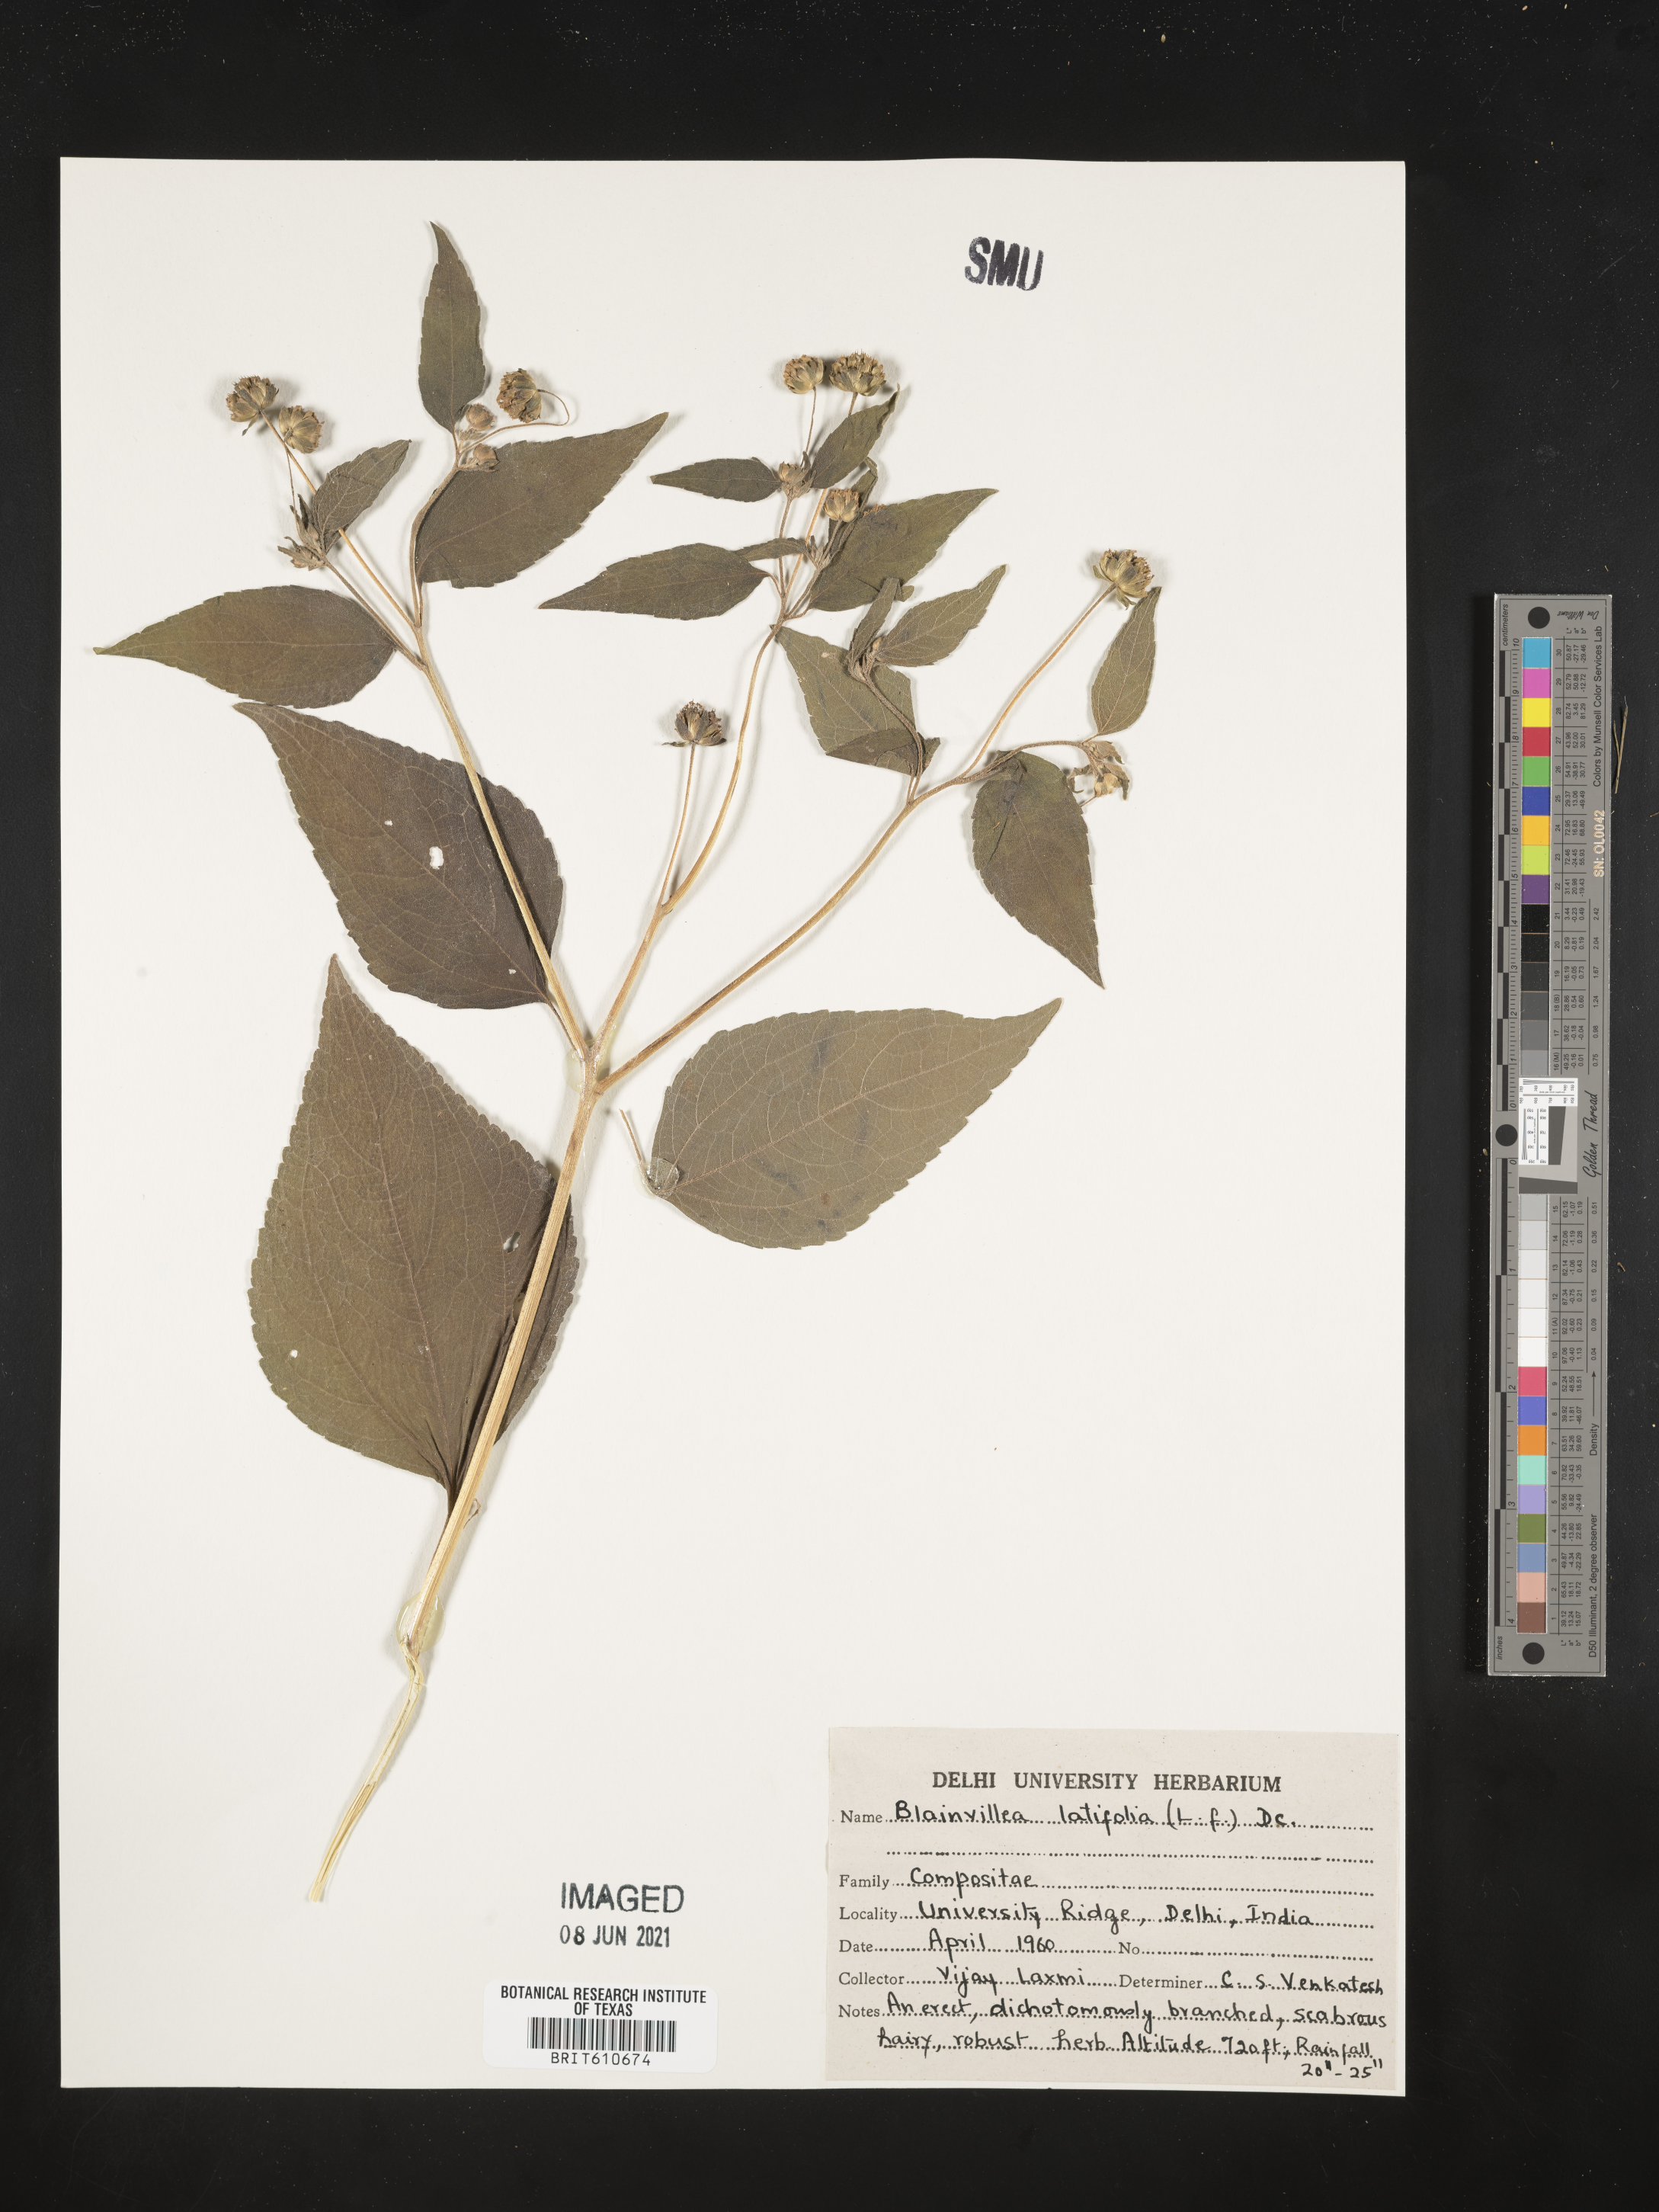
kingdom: Plantae
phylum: Tracheophyta
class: Magnoliopsida
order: Asterales
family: Asteraceae
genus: Blainvillea
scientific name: Blainvillea acmella
